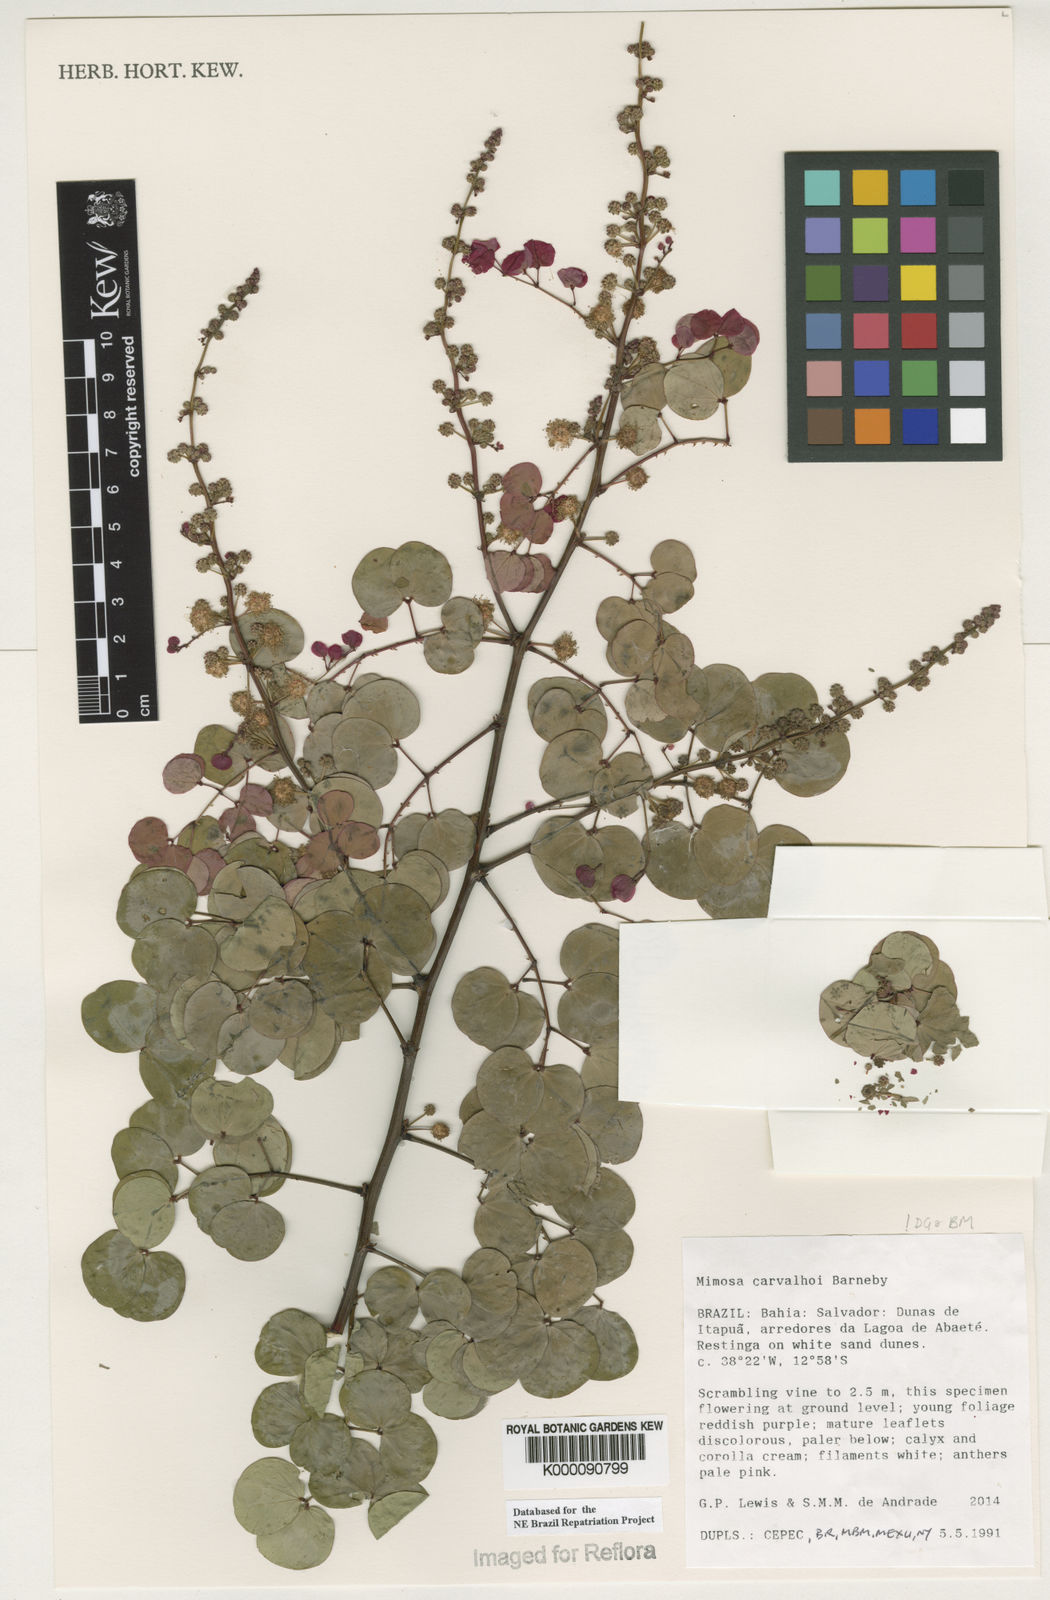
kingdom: Plantae
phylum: Tracheophyta
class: Magnoliopsida
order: Fabales
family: Fabaceae
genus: Mimosa
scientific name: Mimosa carvalhoi
